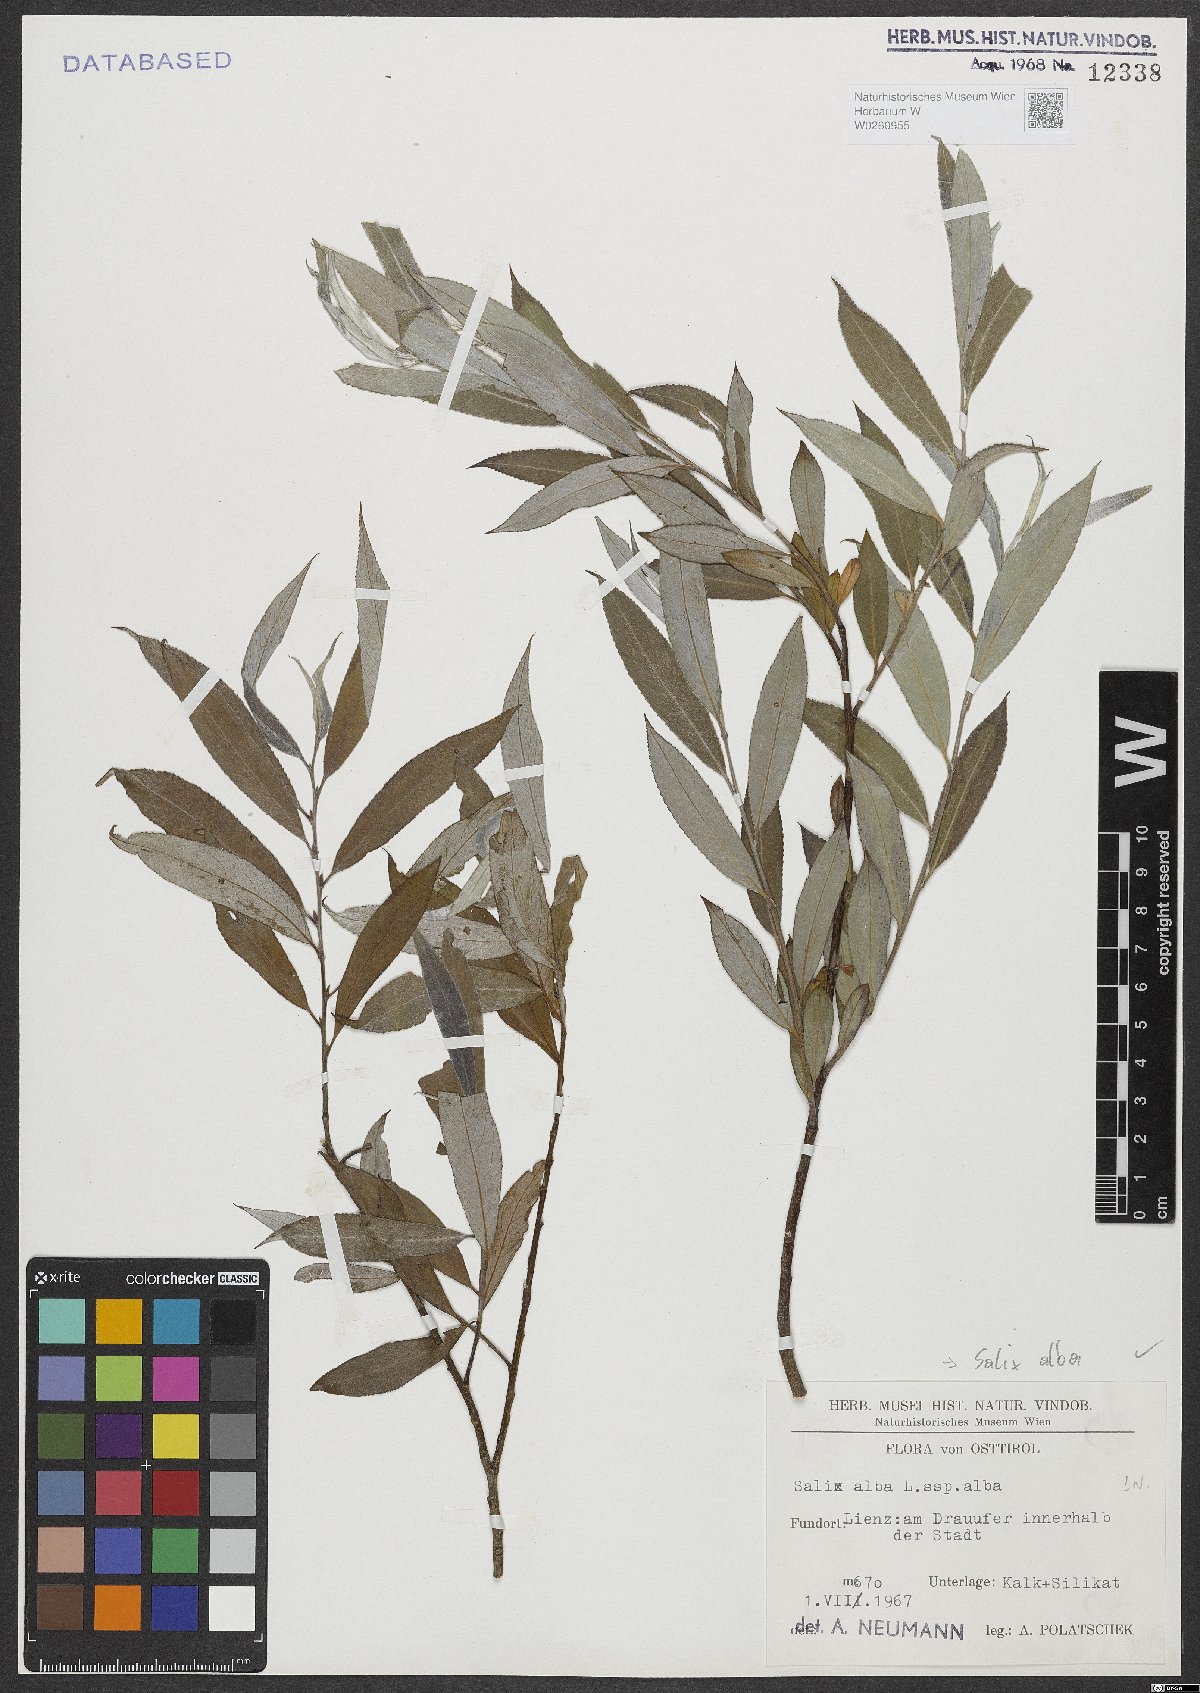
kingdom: Plantae
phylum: Tracheophyta
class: Magnoliopsida
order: Malpighiales
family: Salicaceae
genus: Salix
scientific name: Salix alba
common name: White willow
